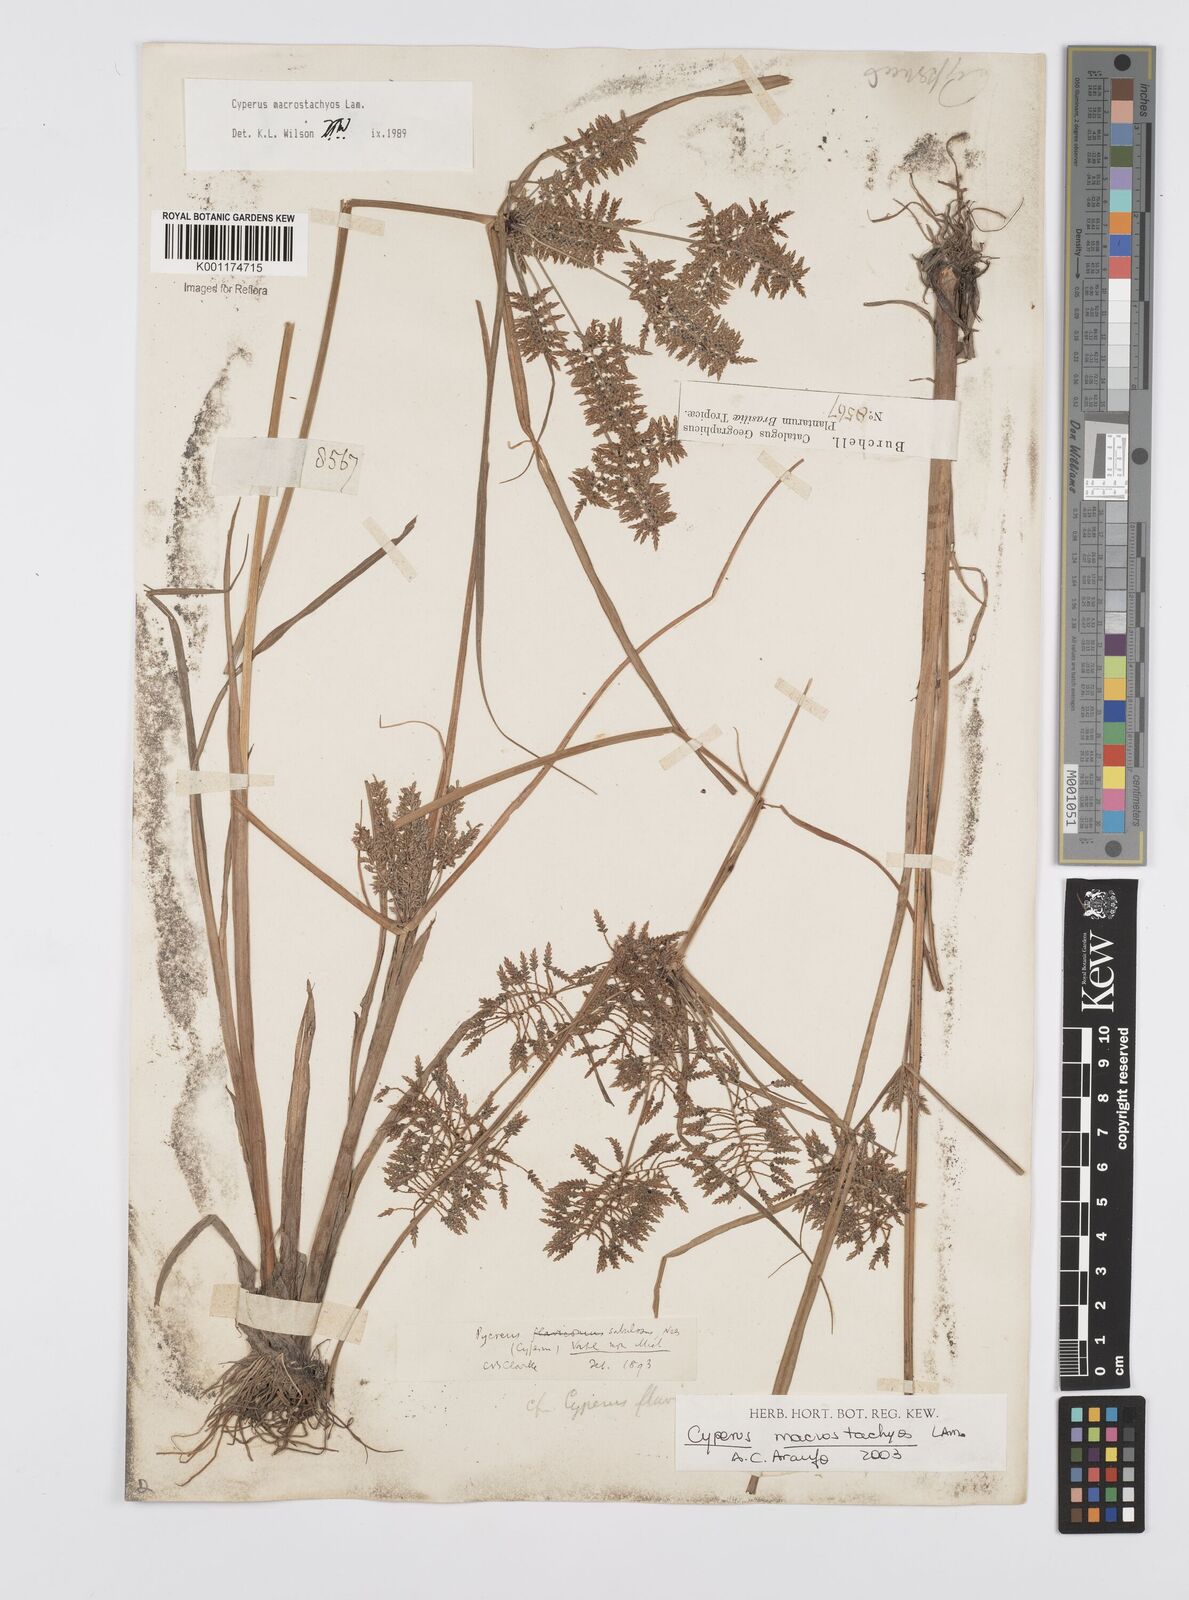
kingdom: Plantae
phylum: Tracheophyta
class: Liliopsida
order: Poales
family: Cyperaceae
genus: Cyperus
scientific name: Cyperus macrostachyos
